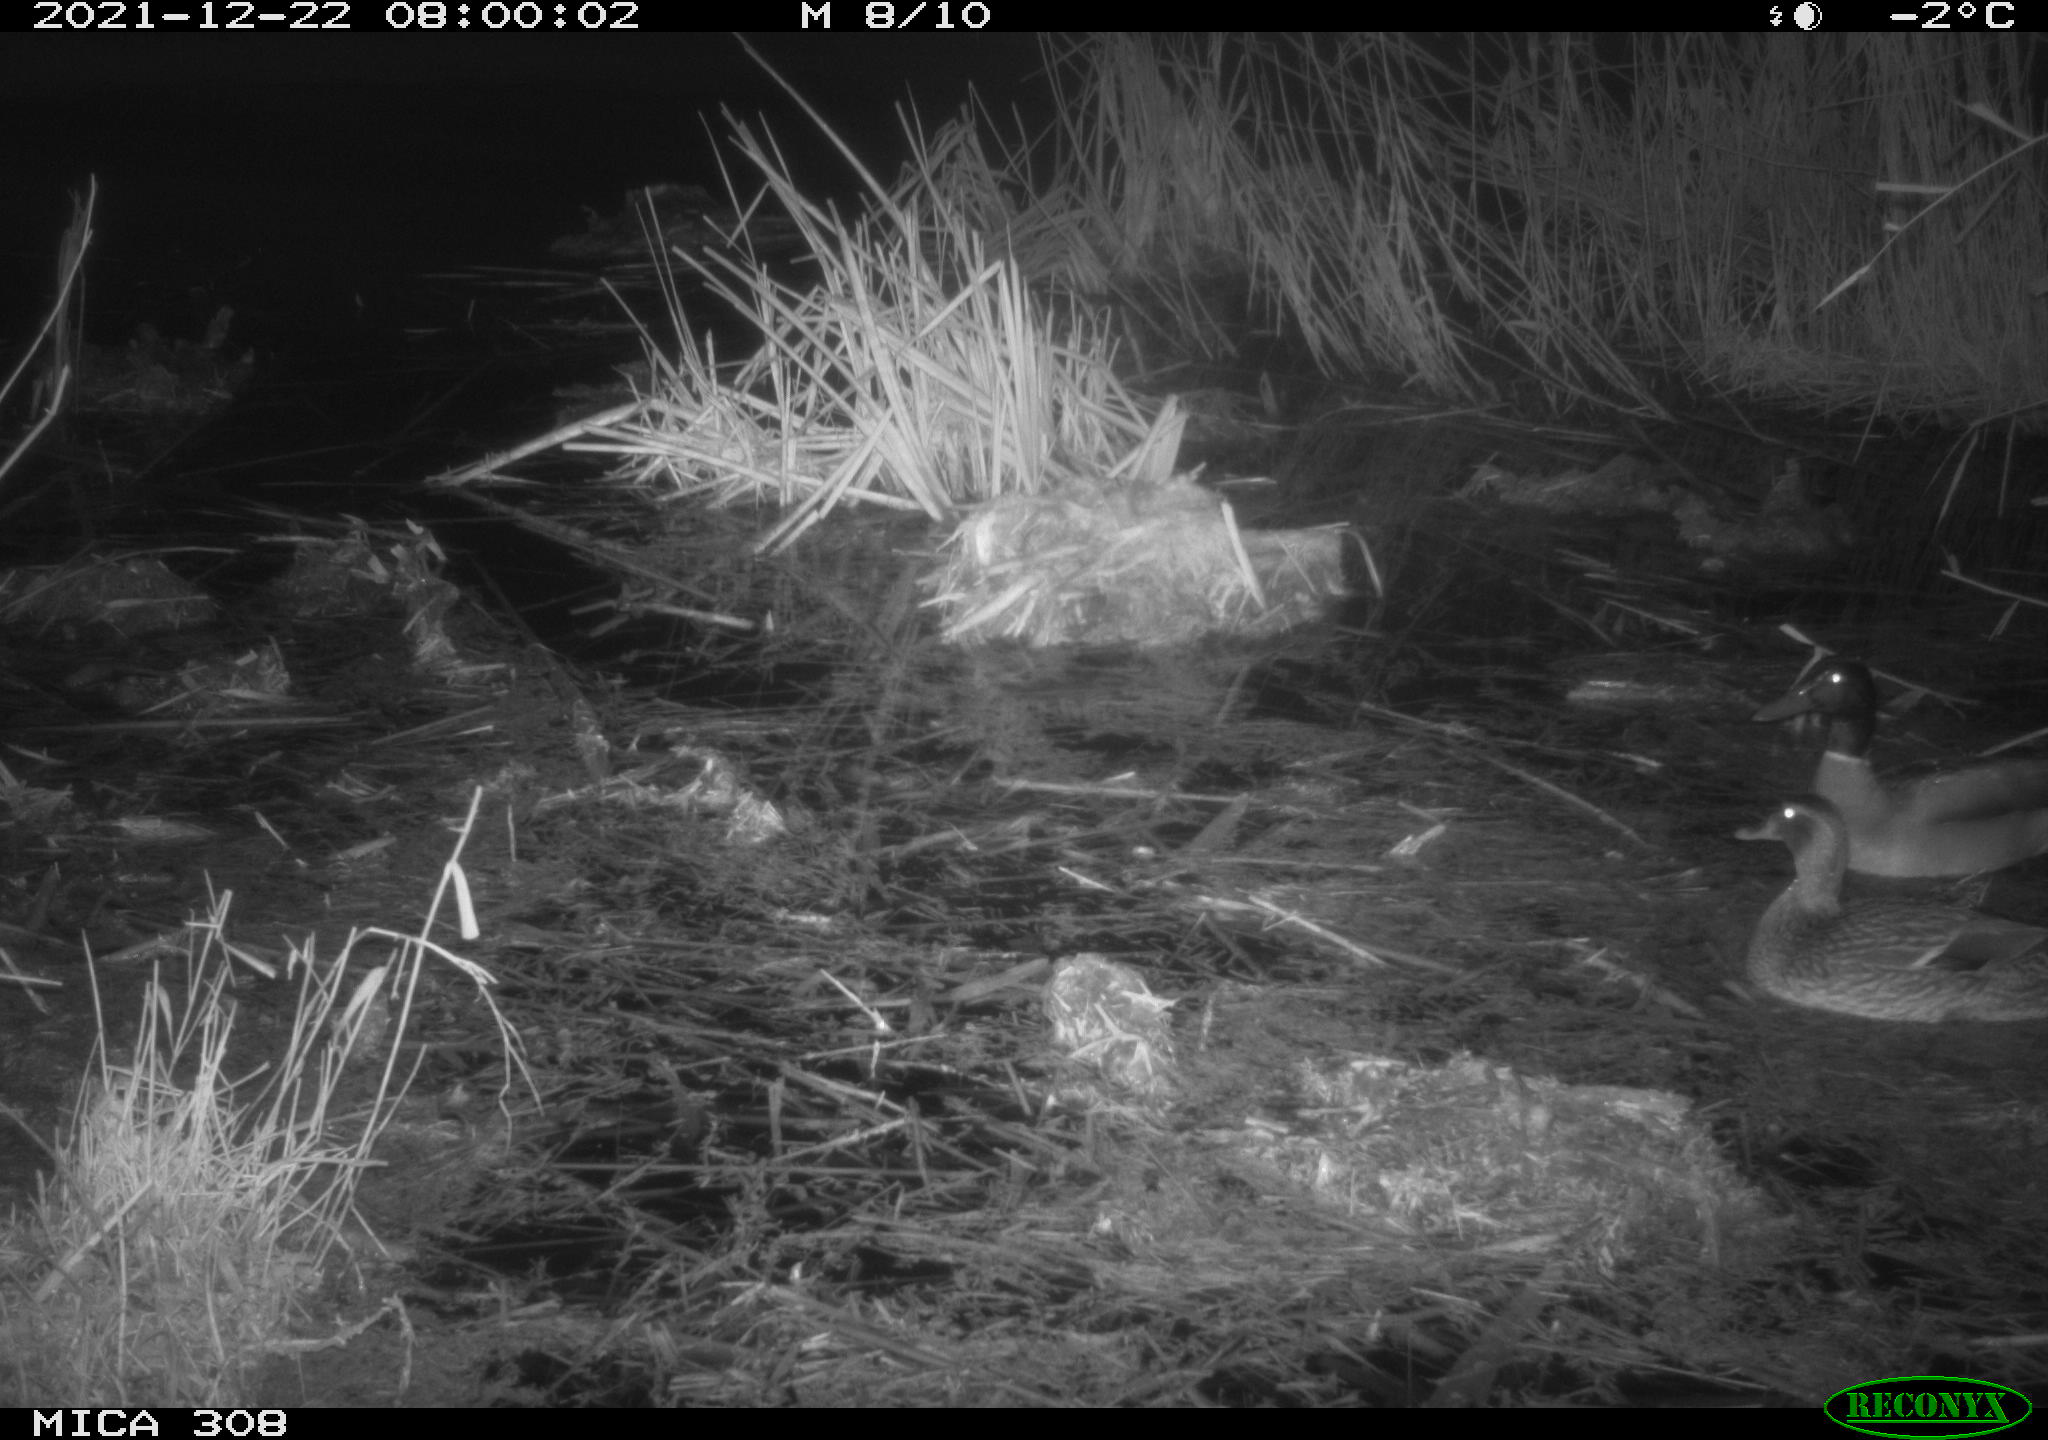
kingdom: Animalia
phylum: Chordata
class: Aves
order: Anseriformes
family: Anatidae
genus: Anas
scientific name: Anas platyrhynchos
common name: Mallard
